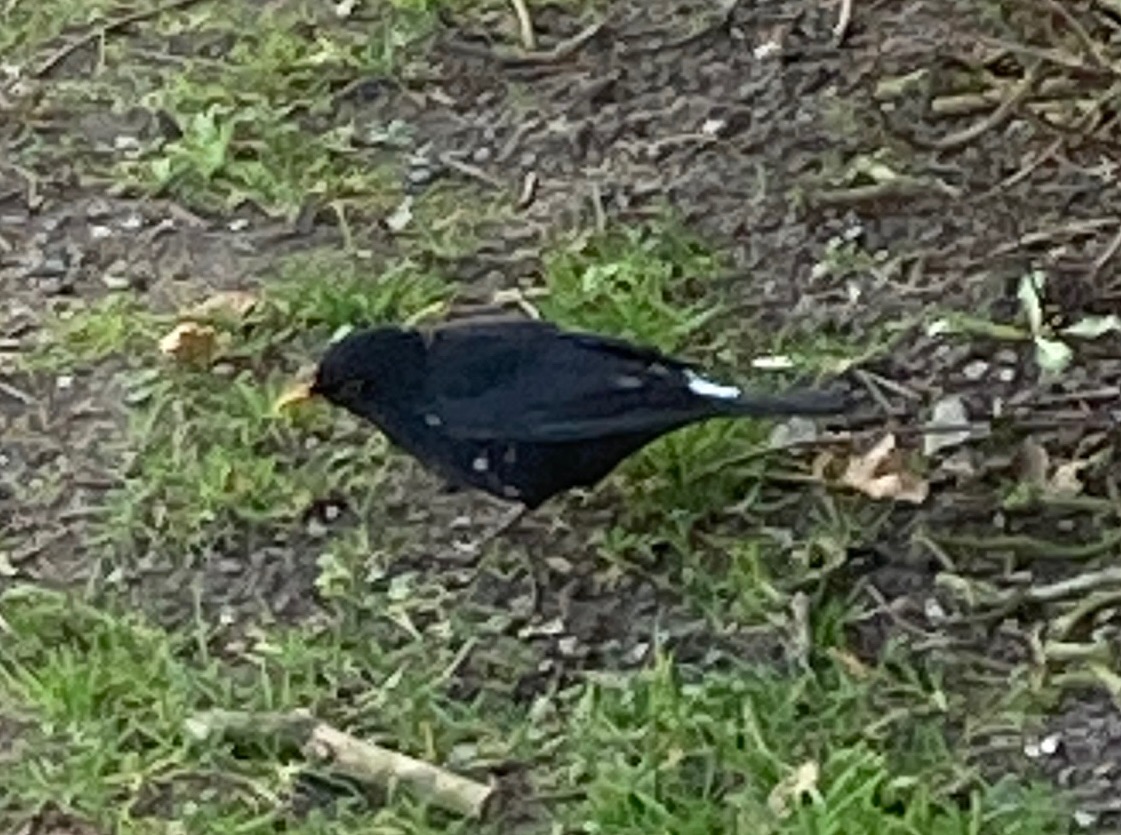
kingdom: Animalia
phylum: Chordata
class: Aves
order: Passeriformes
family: Turdidae
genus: Turdus
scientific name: Turdus merula
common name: Solsort
